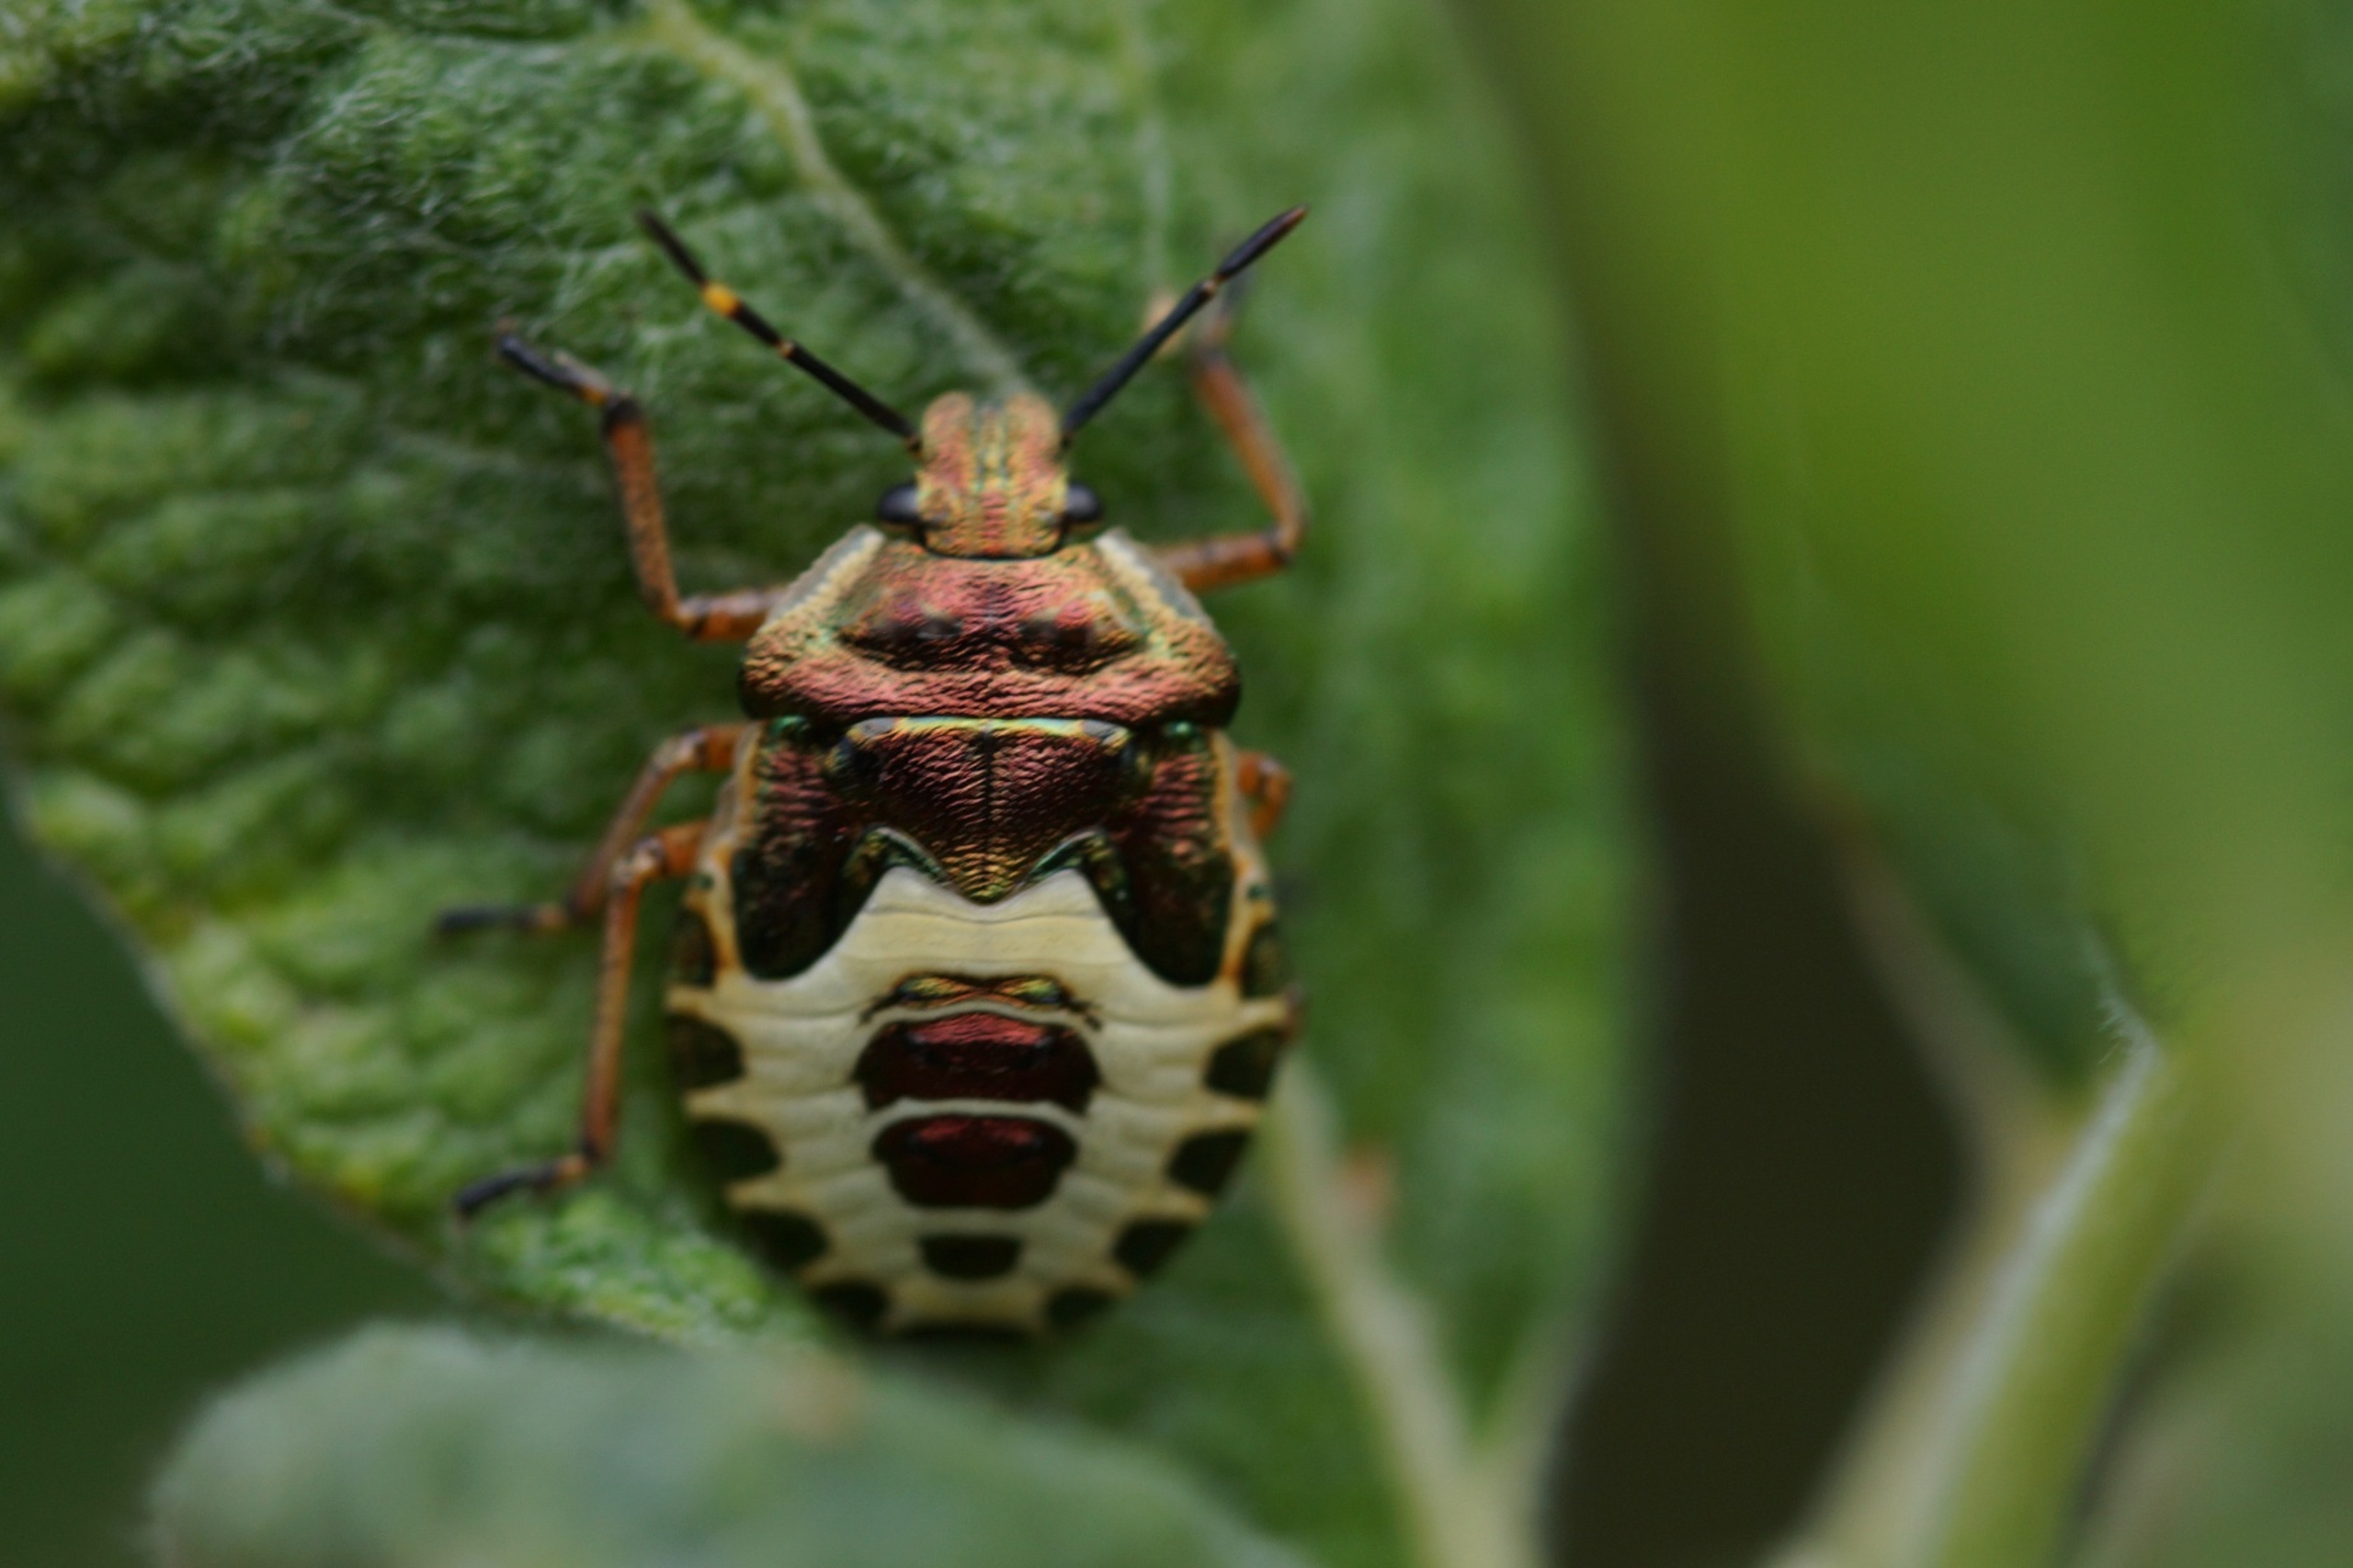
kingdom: Animalia
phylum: Arthropoda
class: Insecta
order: Hemiptera
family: Pentatomidae
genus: Troilus
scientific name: Troilus luridus
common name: Skovbredtæge
